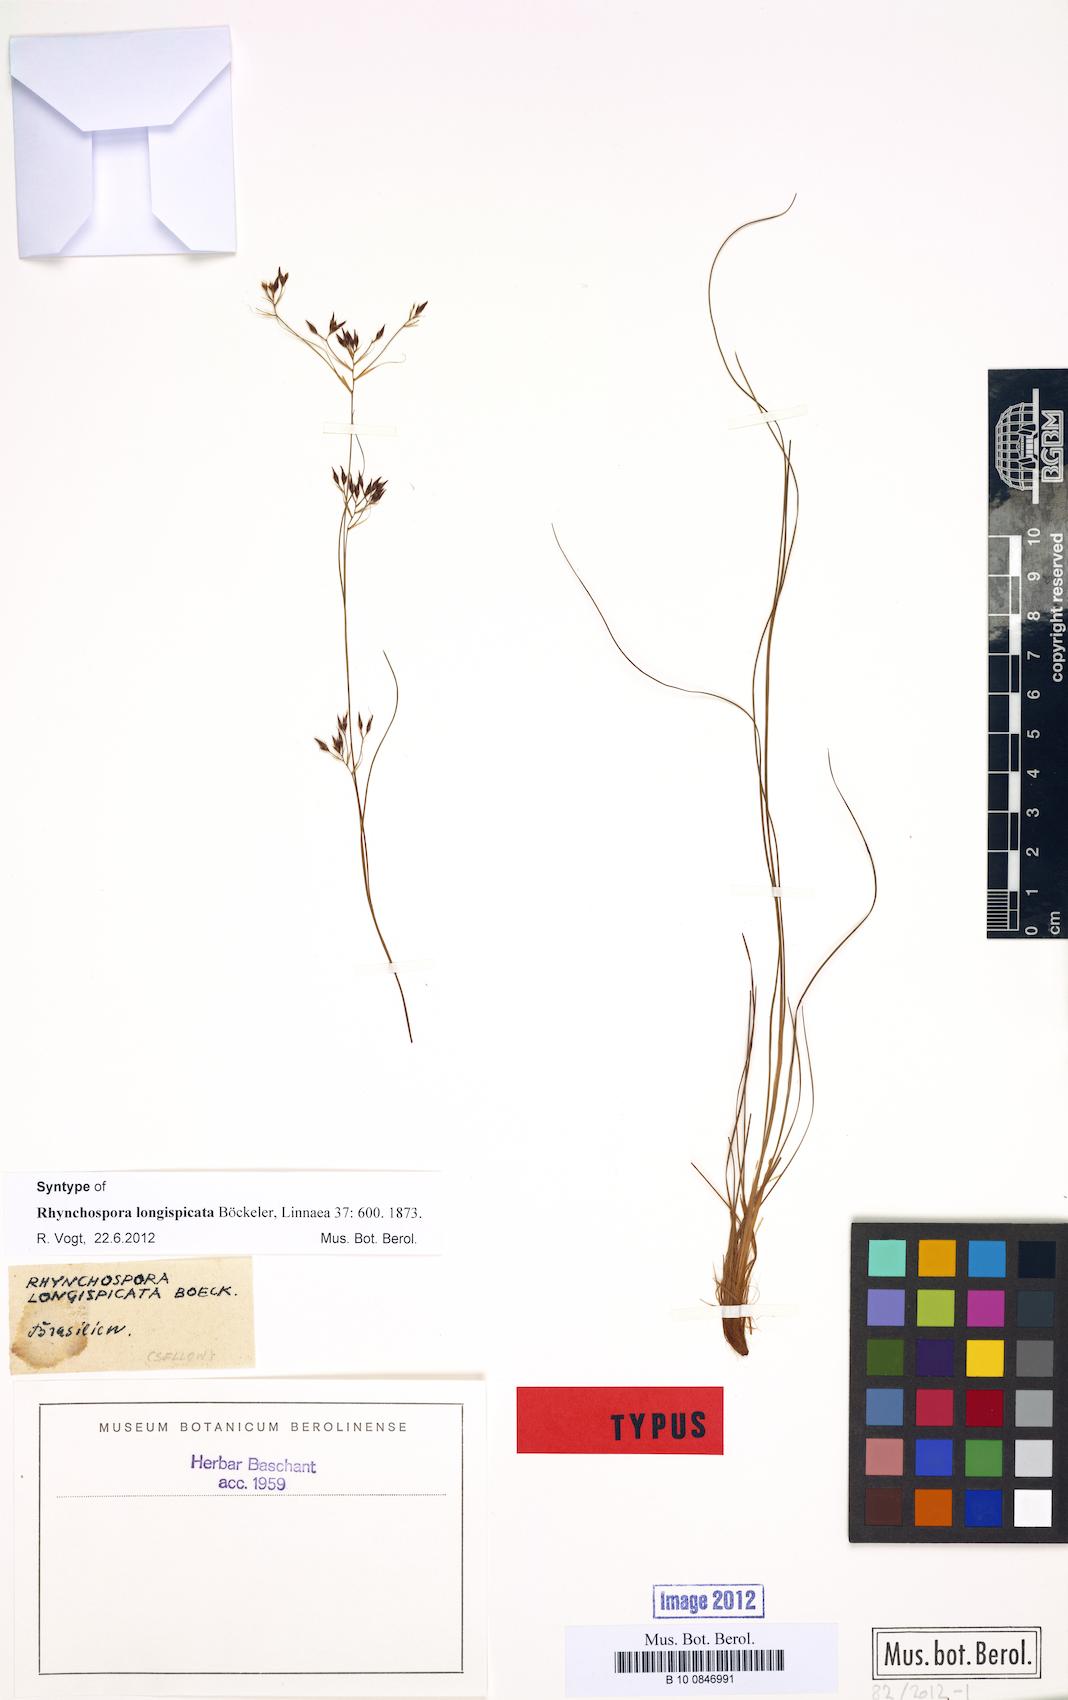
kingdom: Plantae
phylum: Tracheophyta
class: Liliopsida
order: Poales
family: Cyperaceae
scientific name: Cyperaceae
